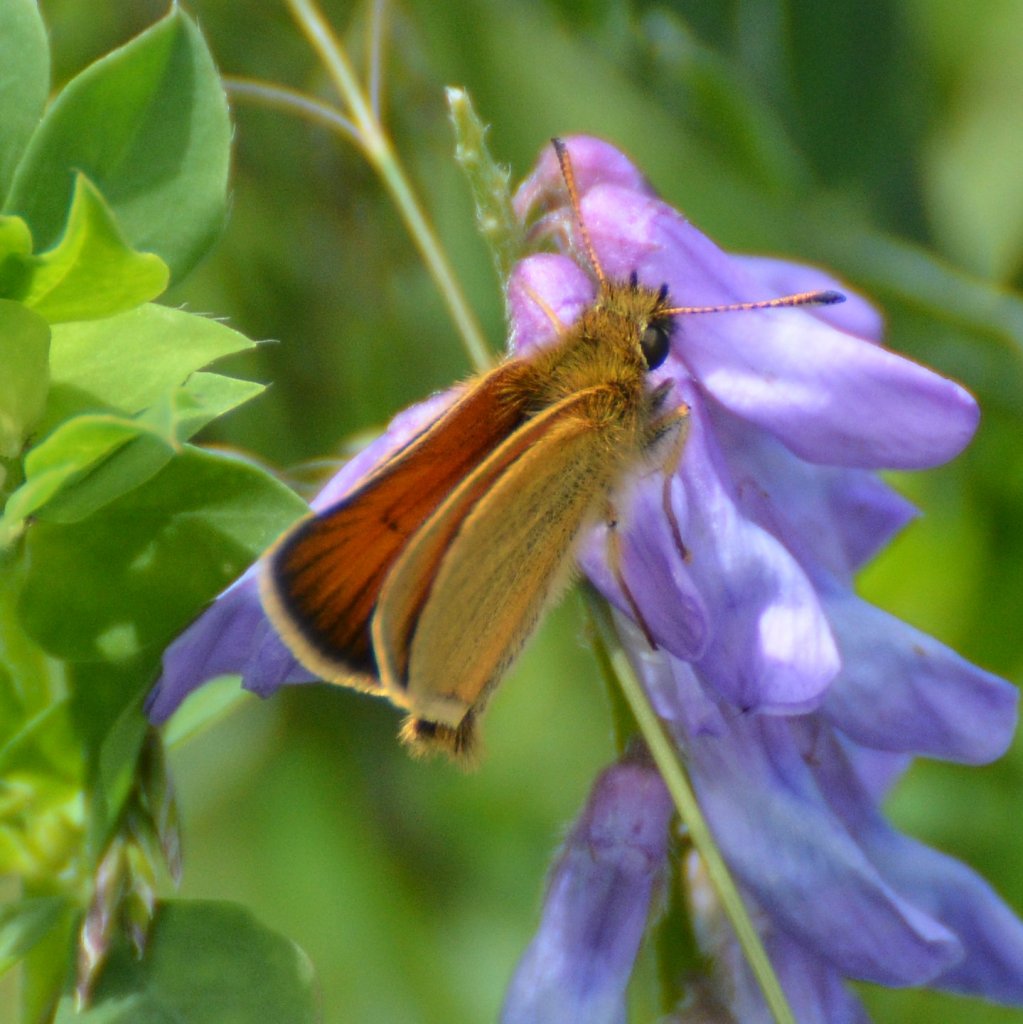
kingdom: Animalia
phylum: Arthropoda
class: Insecta
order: Lepidoptera
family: Hesperiidae
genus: Thymelicus
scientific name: Thymelicus lineola
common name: European Skipper
